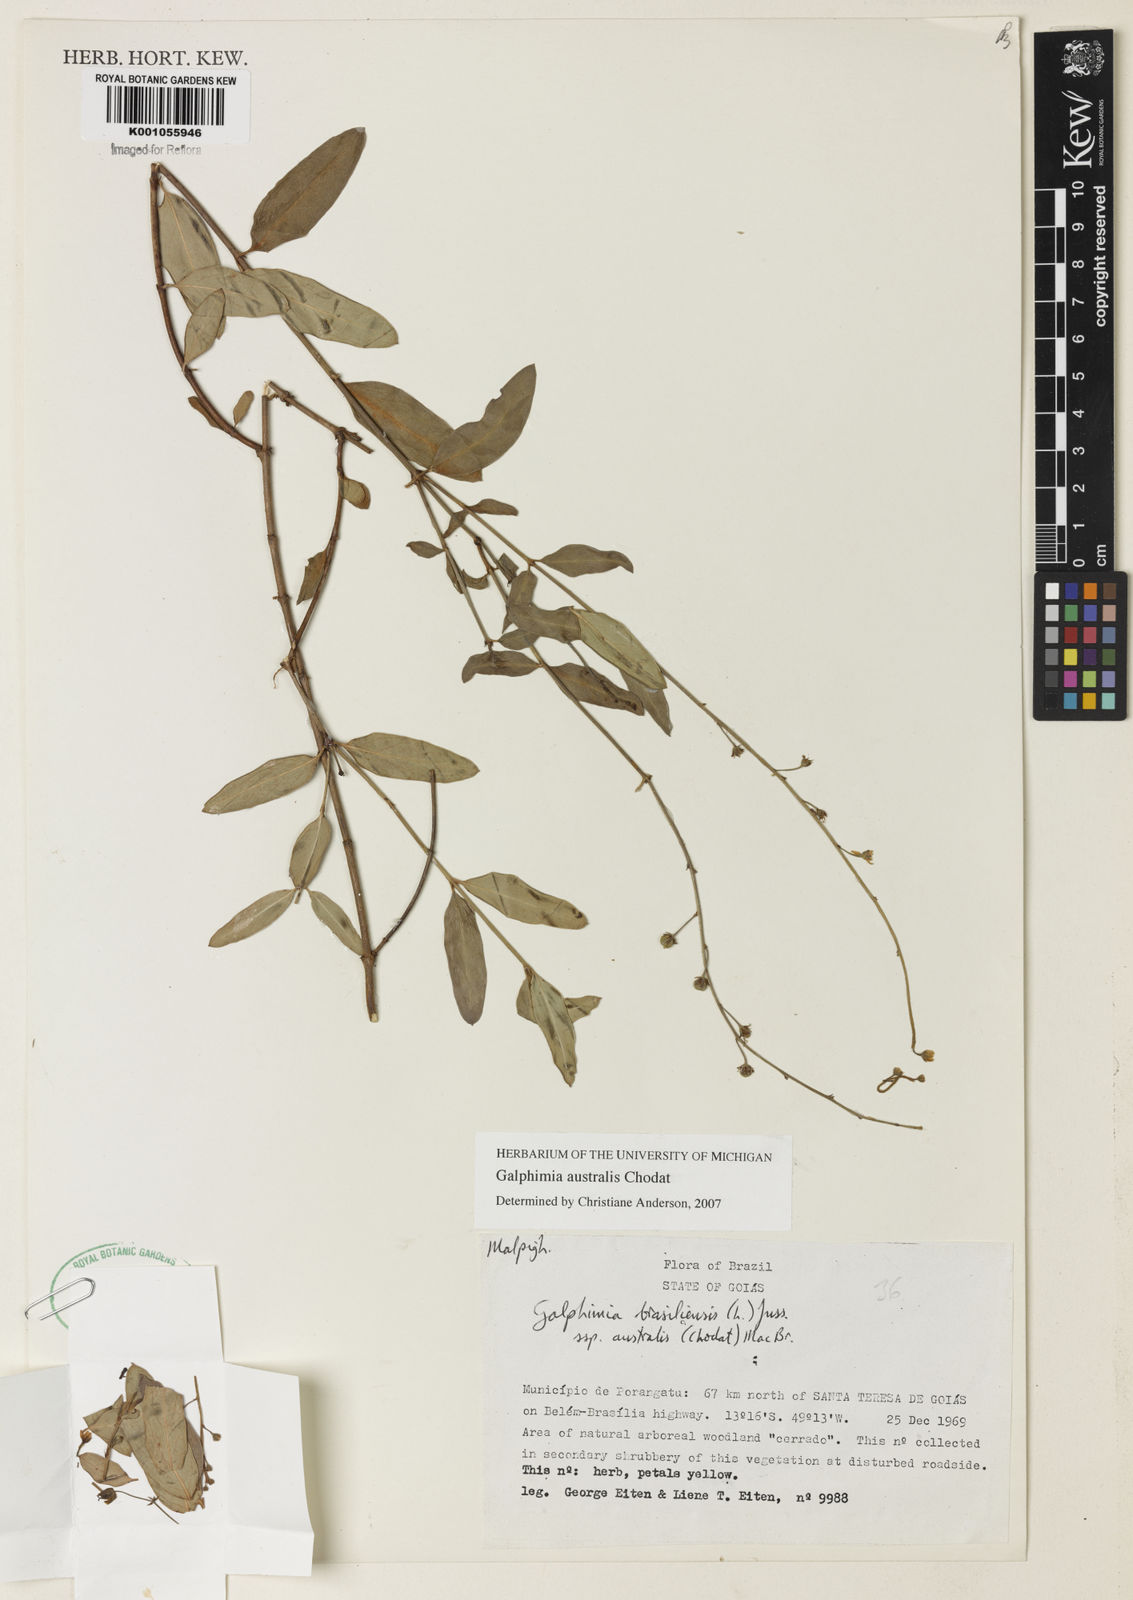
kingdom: Plantae
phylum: Tracheophyta
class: Magnoliopsida
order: Malpighiales
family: Malpighiaceae
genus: Galphimia
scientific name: Galphimia brasiliensis
